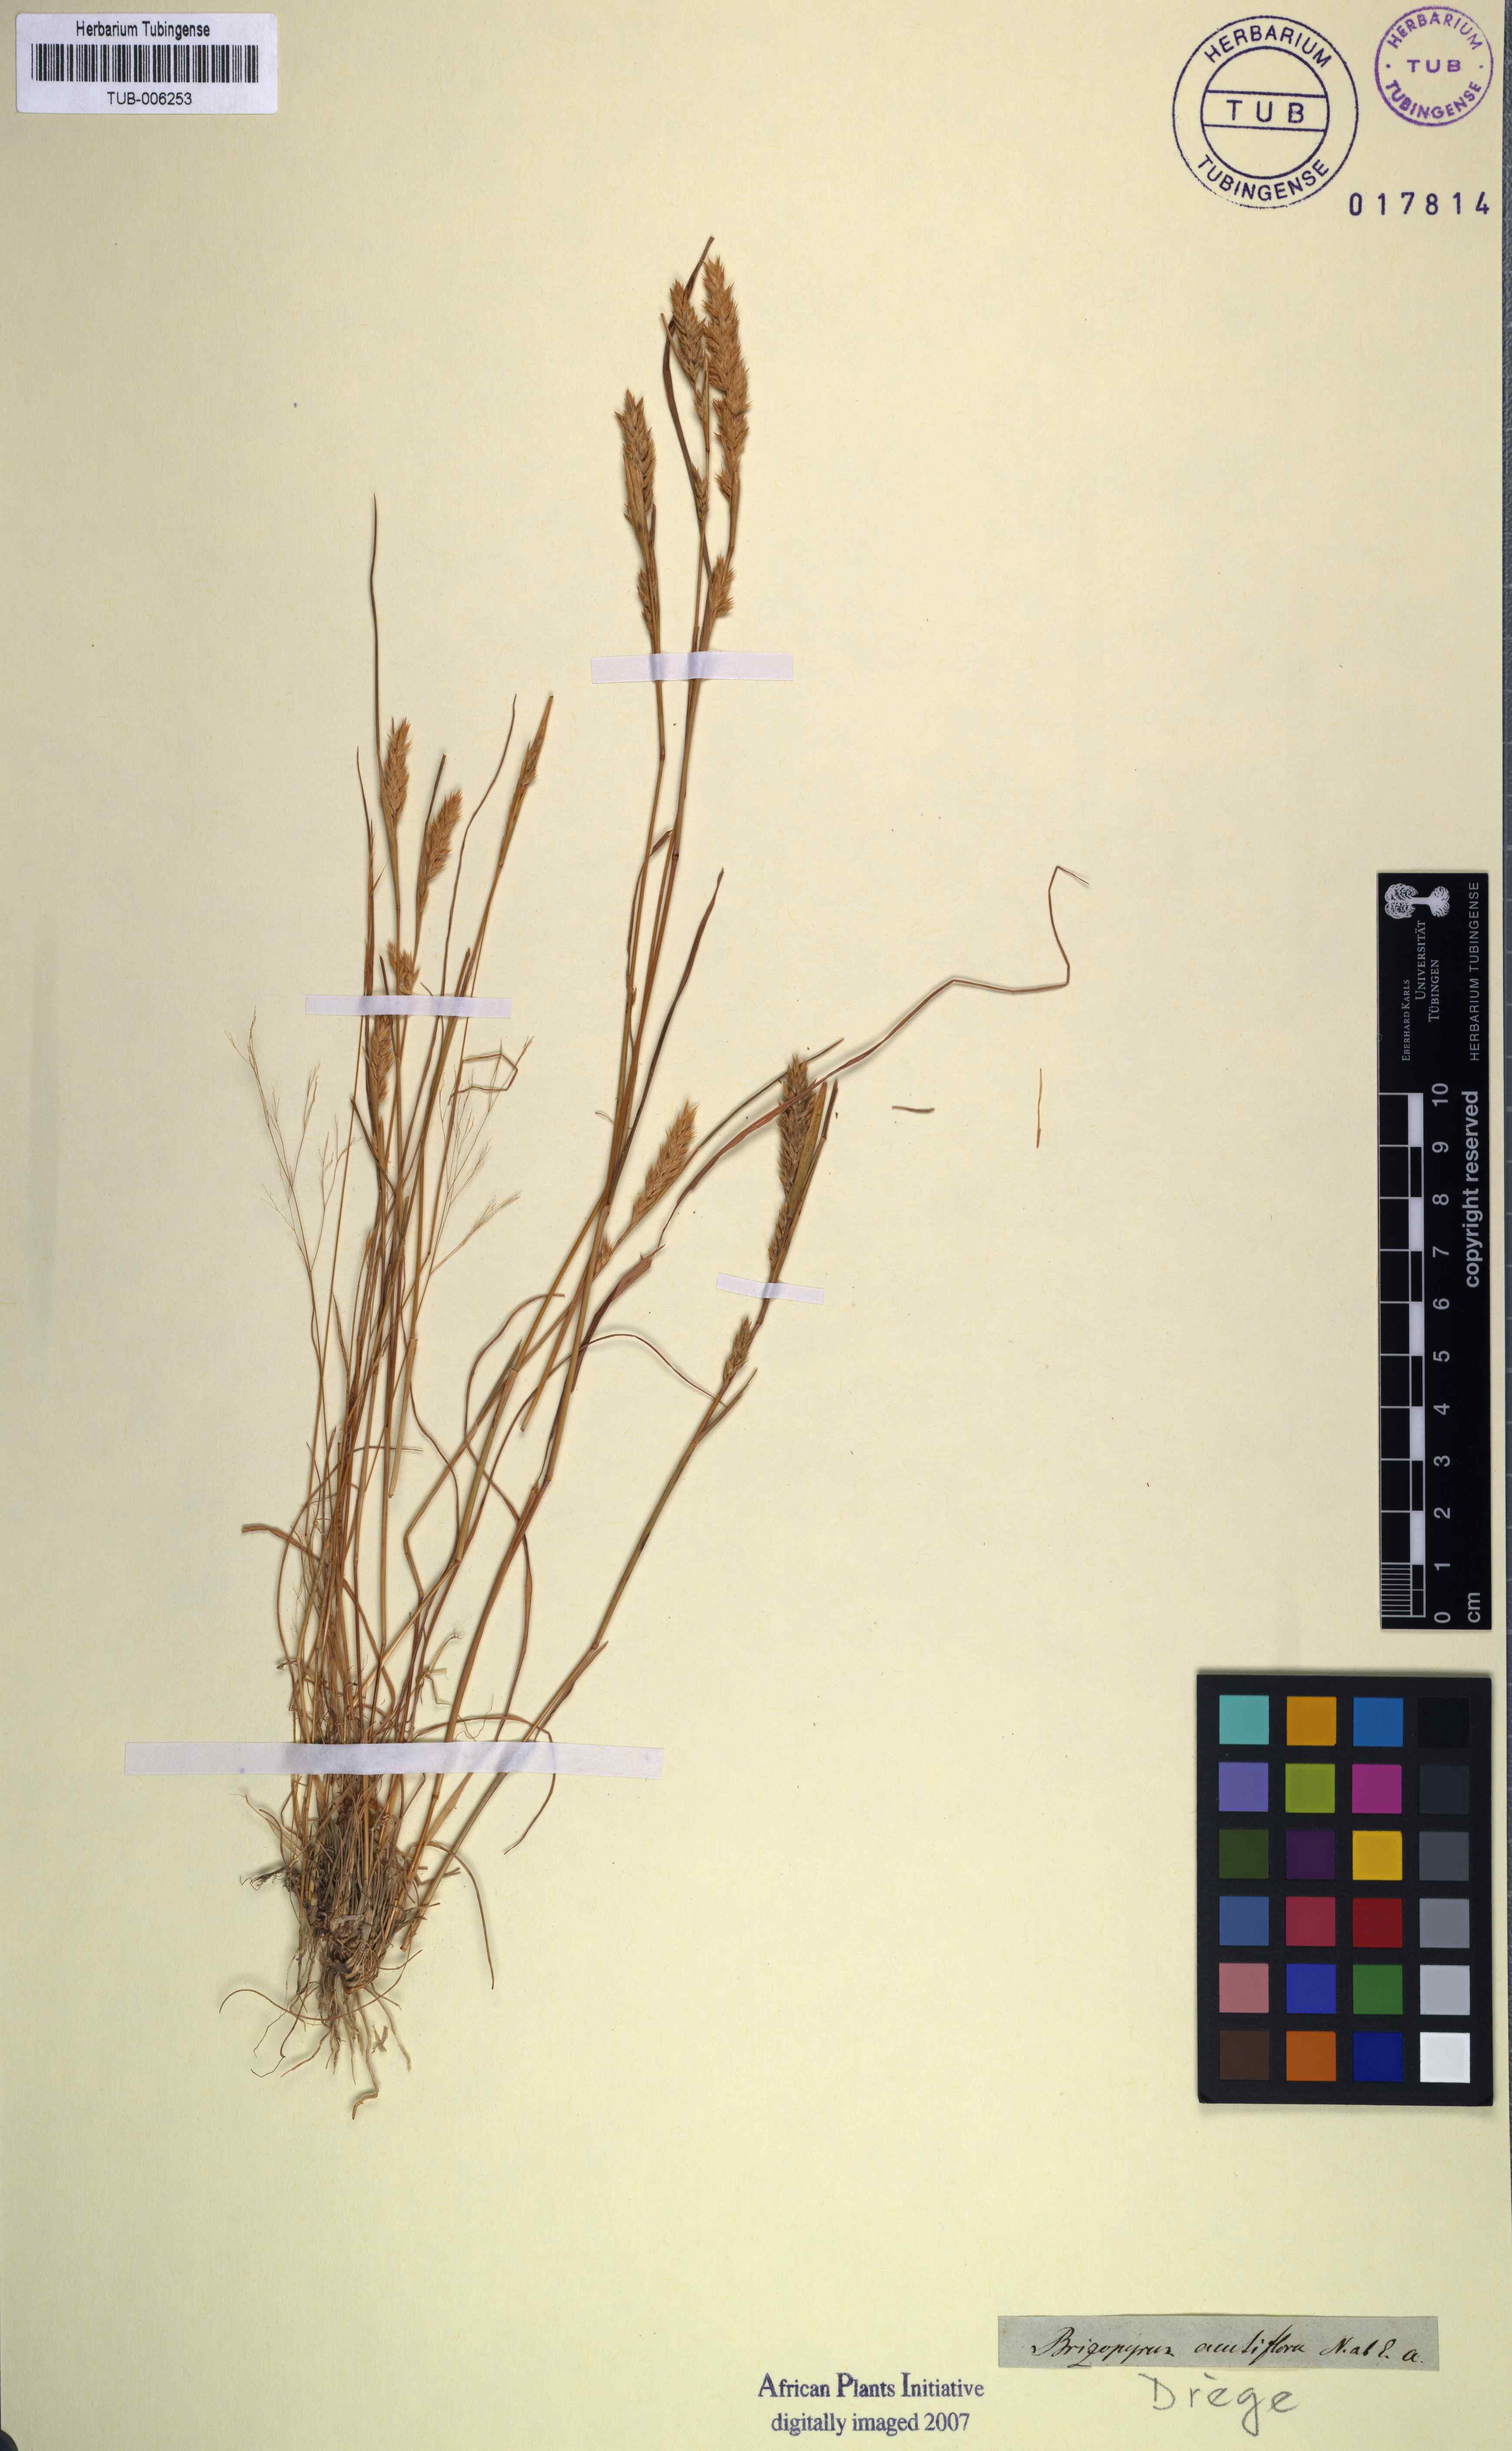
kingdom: Plantae
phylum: Tracheophyta
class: Liliopsida
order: Poales
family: Poaceae
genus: Tribolium
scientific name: Tribolium acutiflorum
